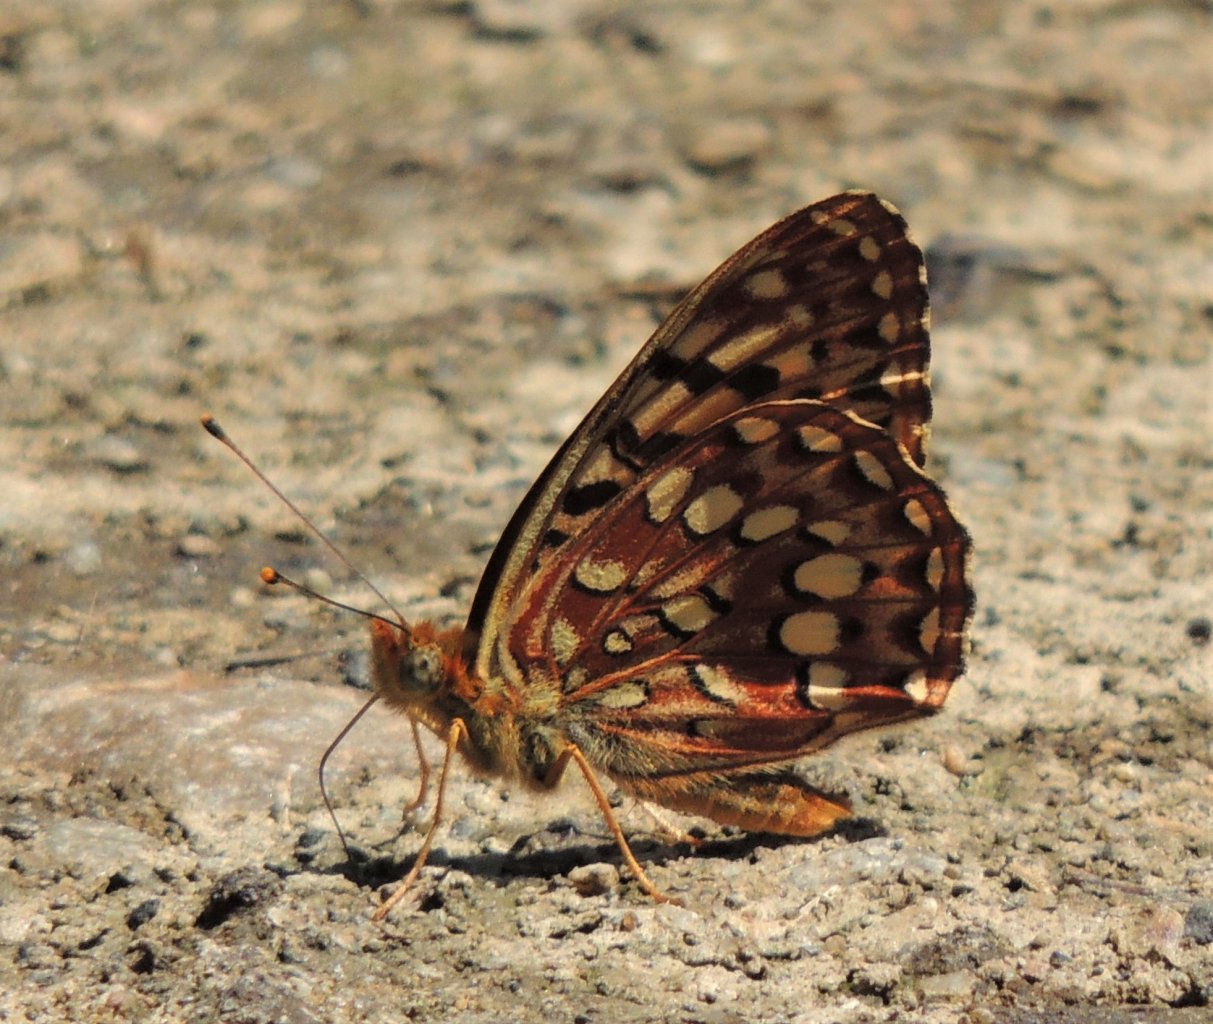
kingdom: Animalia
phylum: Arthropoda
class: Insecta
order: Lepidoptera
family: Nymphalidae
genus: Speyeria
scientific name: Speyeria hydaspe
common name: Hydaspe Fritillary
